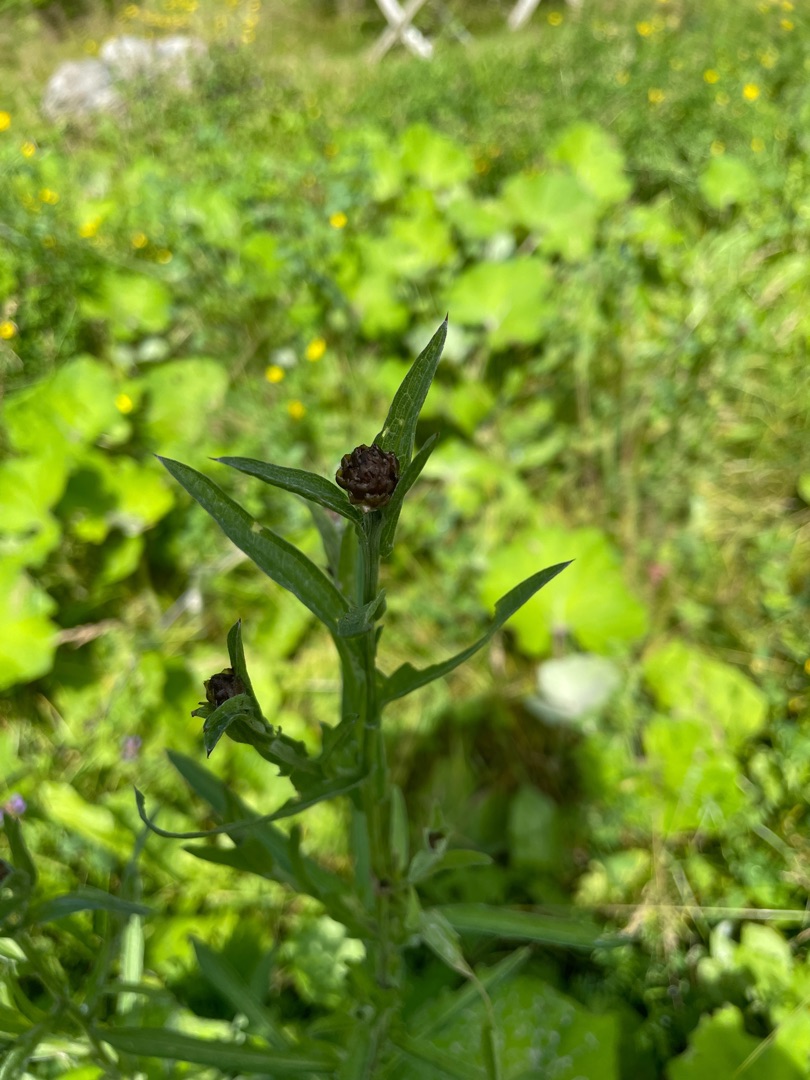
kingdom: Plantae
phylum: Tracheophyta
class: Magnoliopsida
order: Asterales
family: Asteraceae
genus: Centaurea
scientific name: Centaurea jacea
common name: Almindelig knopurt
